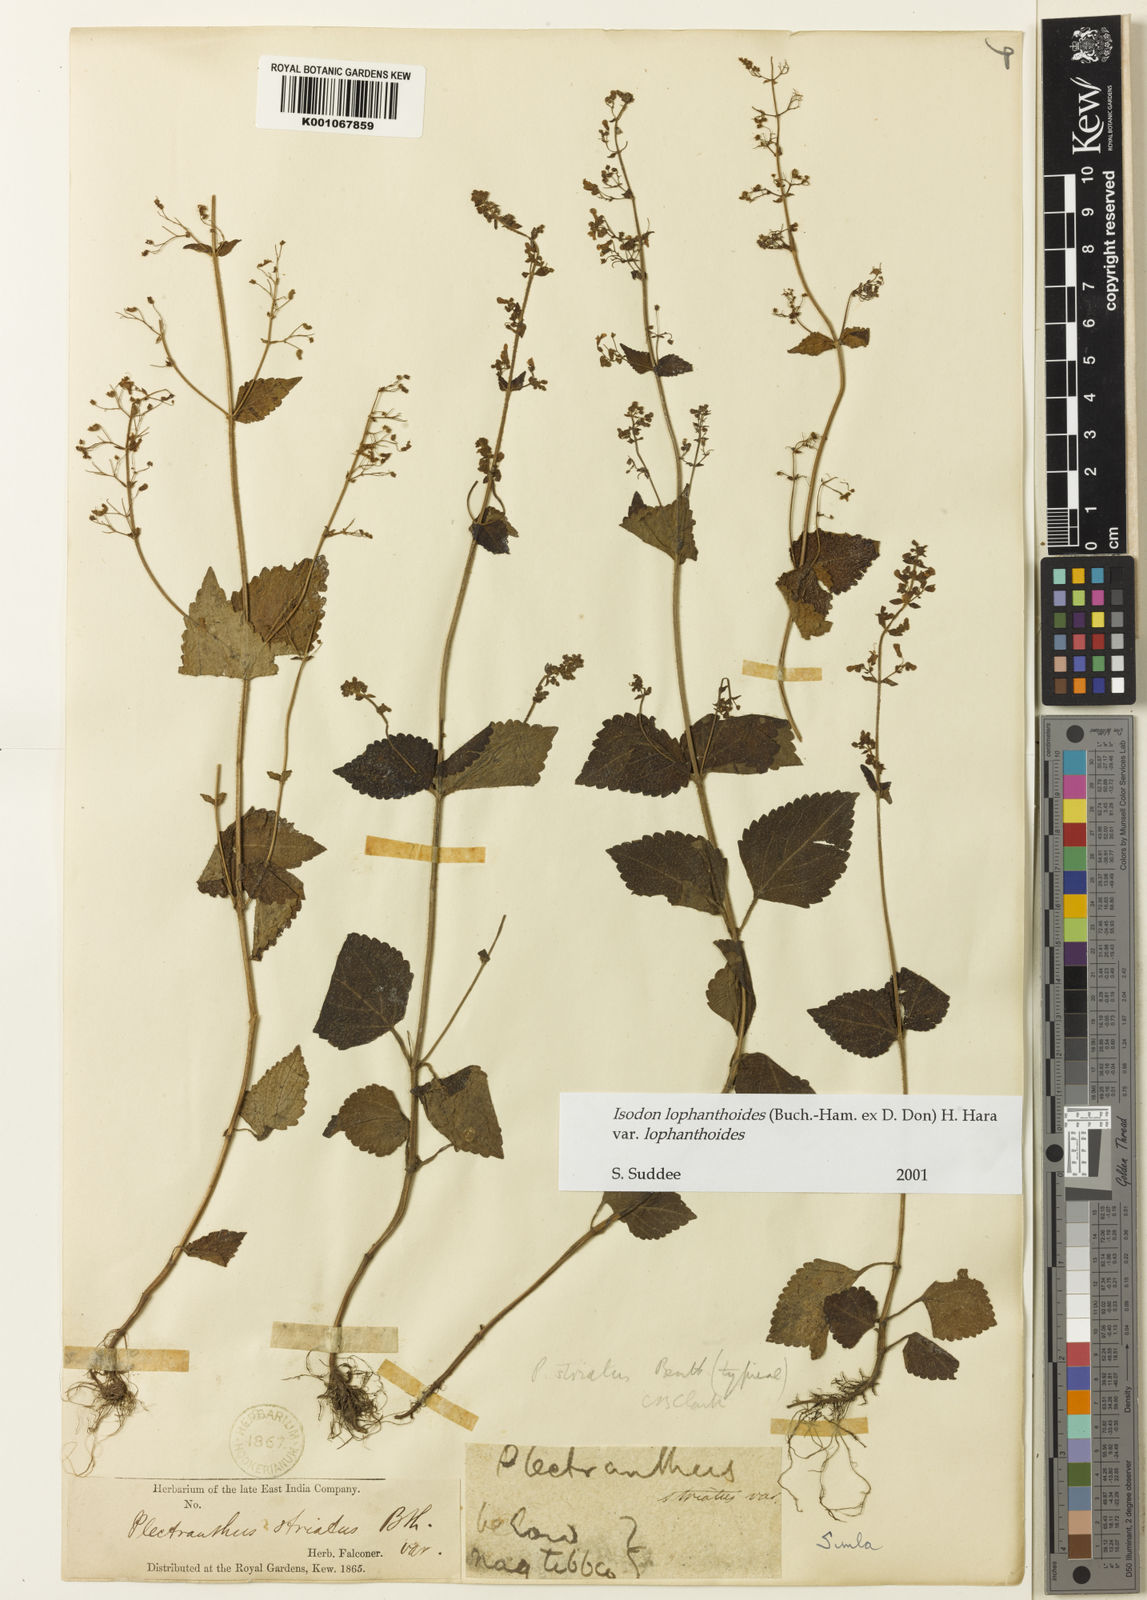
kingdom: Plantae
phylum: Tracheophyta
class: Magnoliopsida
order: Lamiales
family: Lamiaceae
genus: Isodon
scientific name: Isodon lophanthoides
